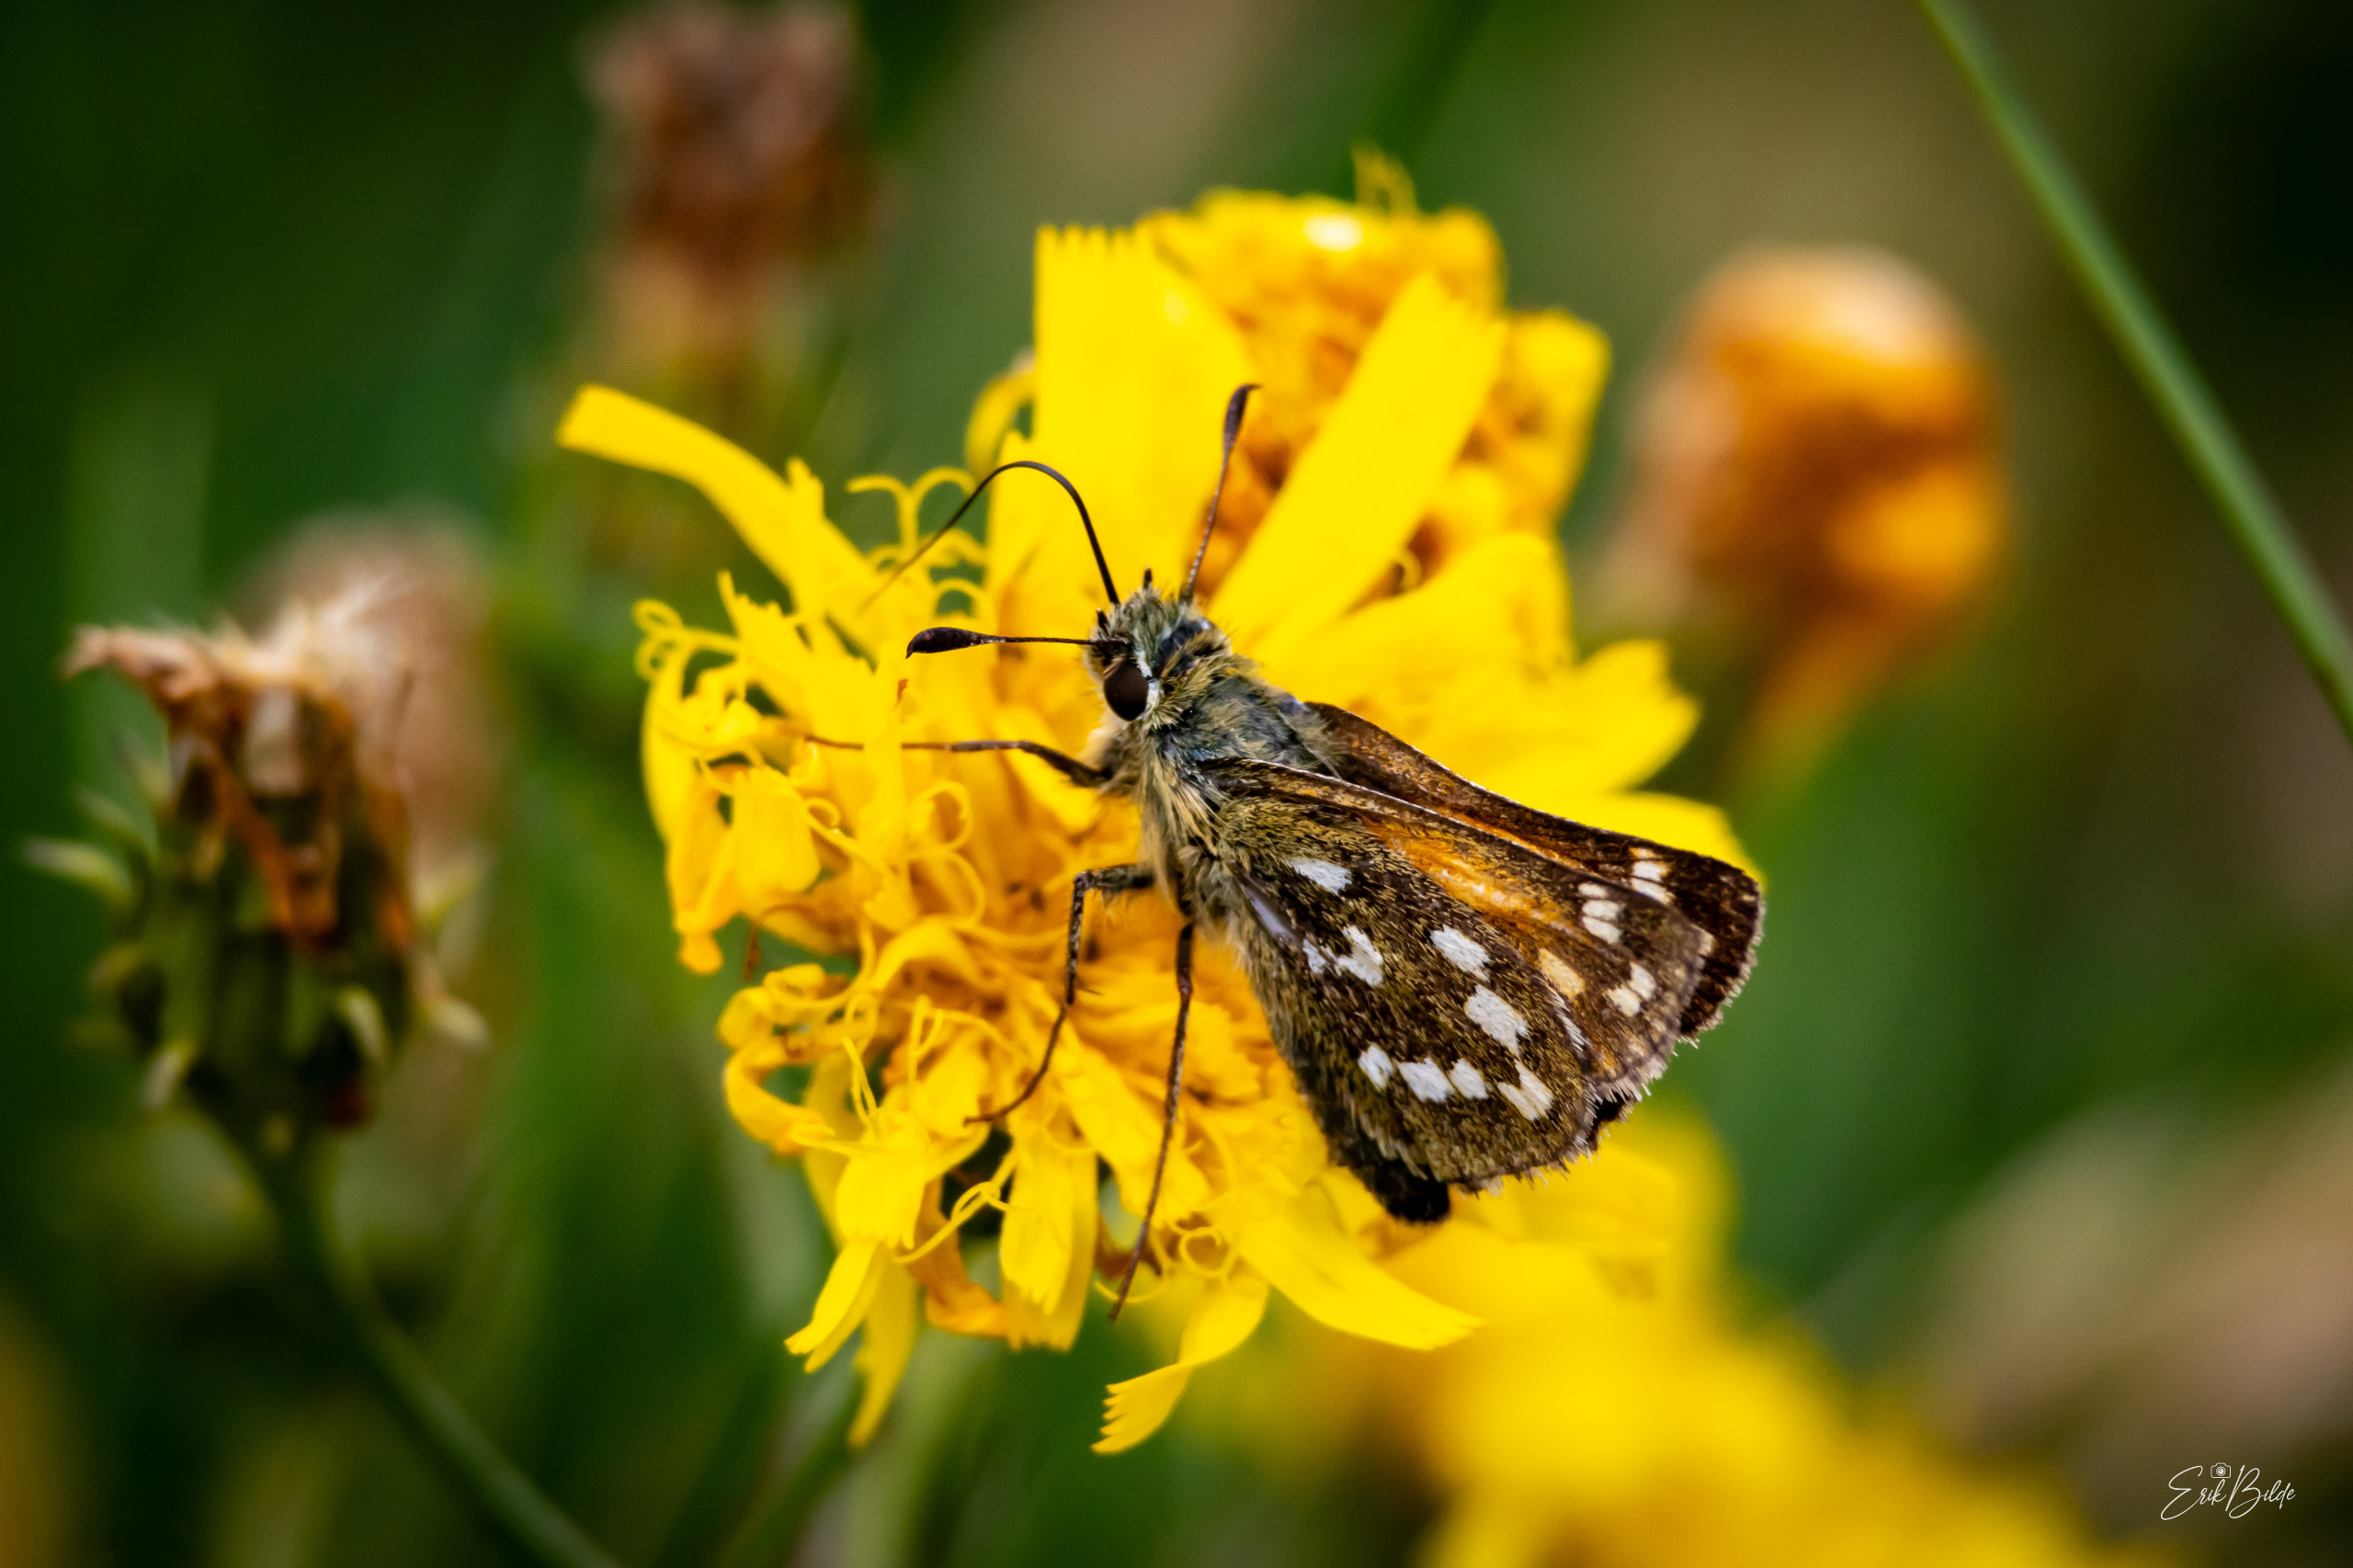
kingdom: Animalia
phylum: Arthropoda
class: Insecta
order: Lepidoptera
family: Hesperiidae
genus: Hesperia
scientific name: Hesperia comma
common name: Kommabredpande
